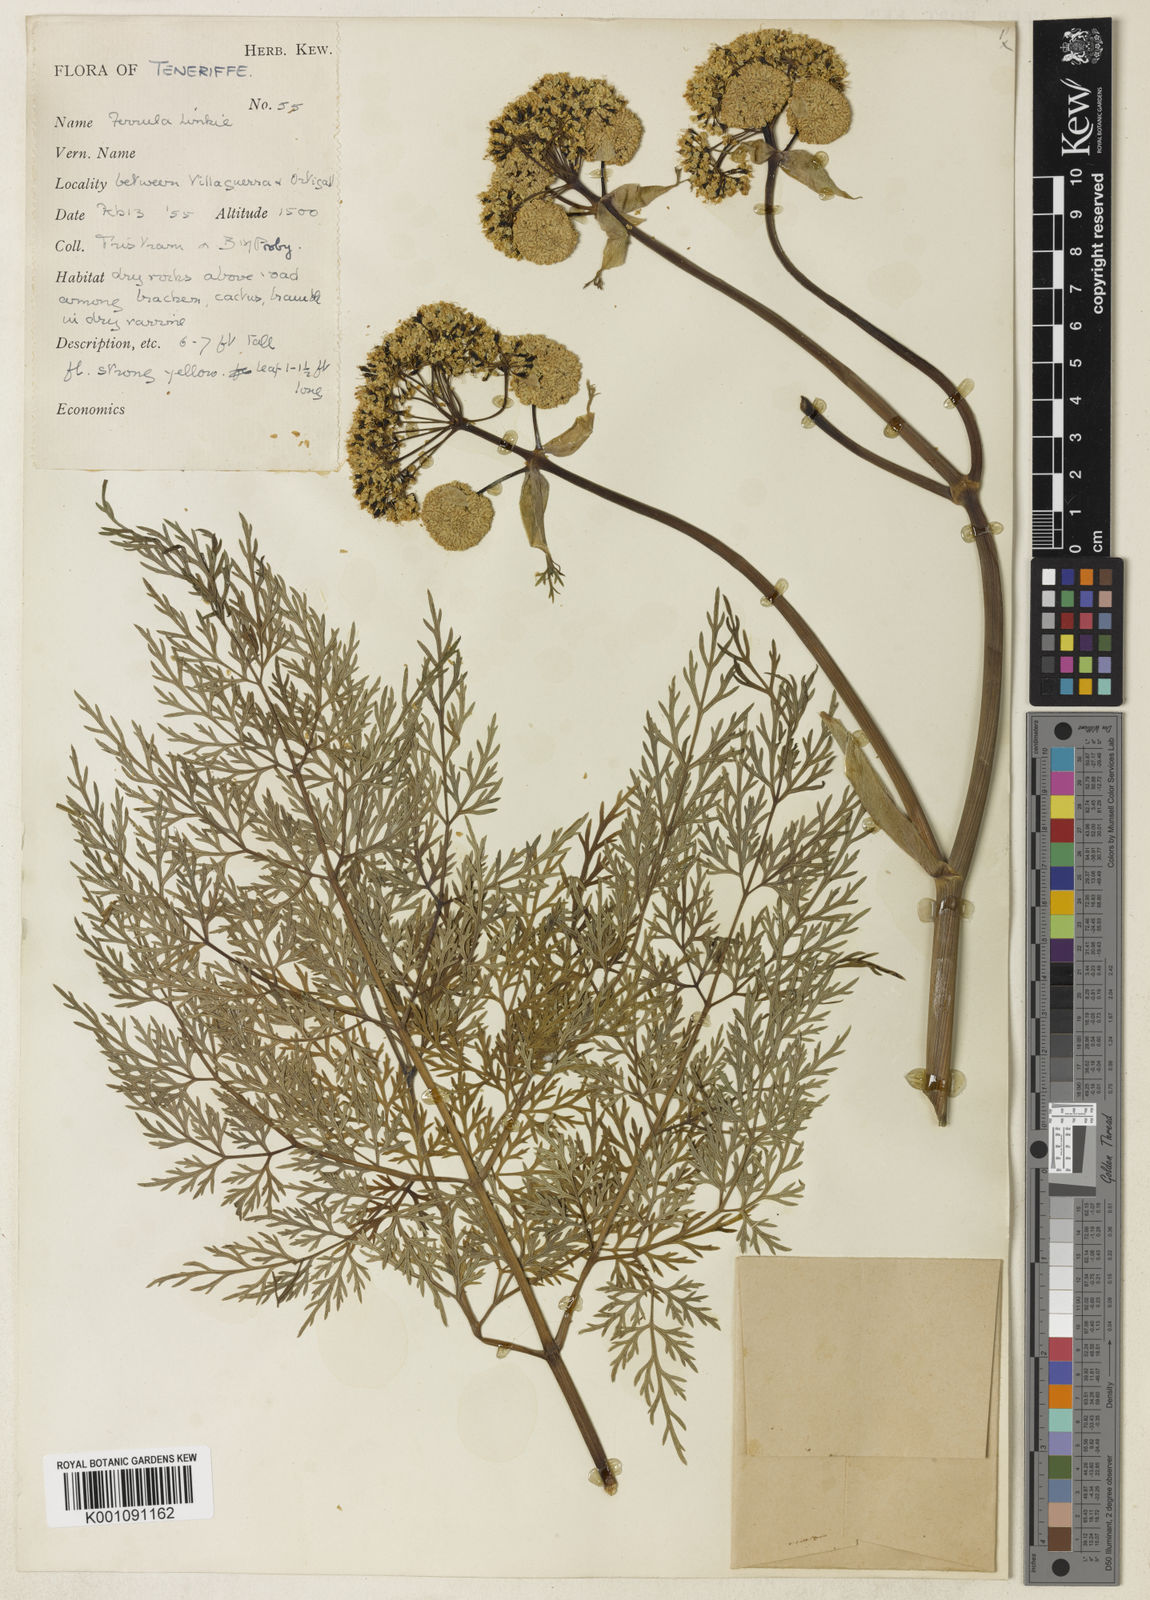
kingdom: Plantae
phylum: Tracheophyta
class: Magnoliopsida
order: Apiales
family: Apiaceae
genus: Ferula
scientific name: Ferula communis
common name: Giant fennel
